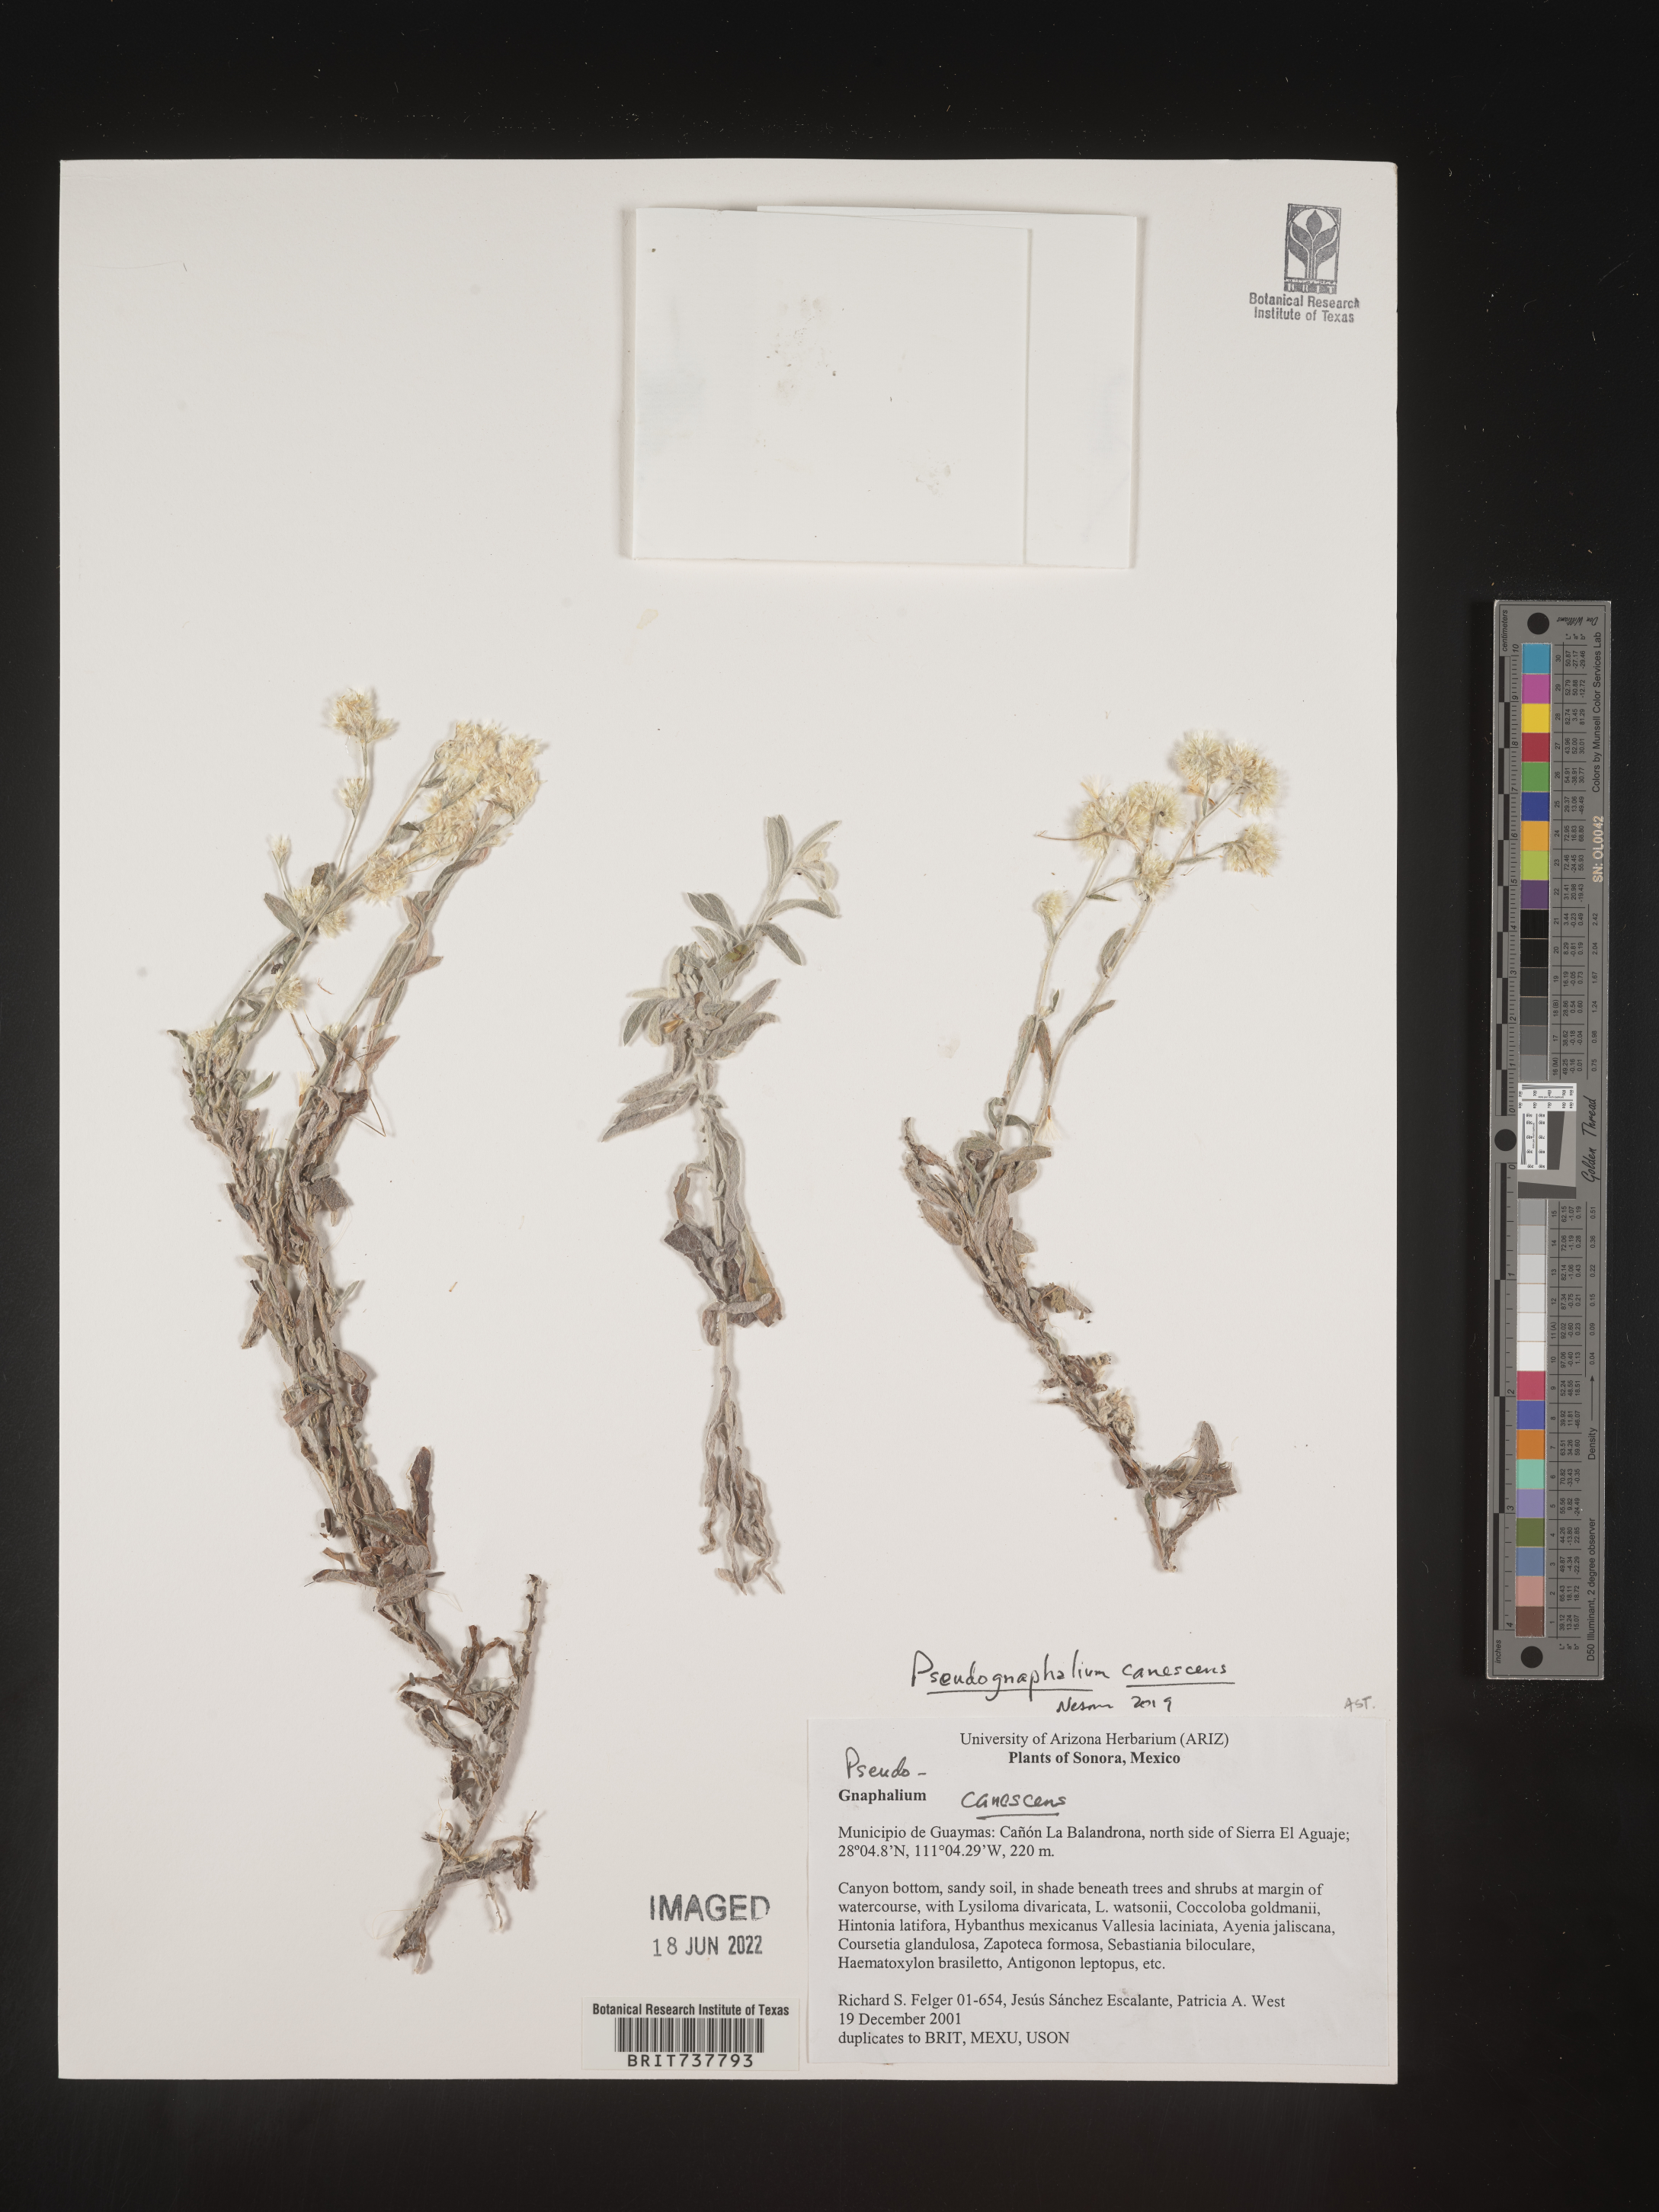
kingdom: Plantae
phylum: Tracheophyta
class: Magnoliopsida
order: Asterales
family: Asteraceae
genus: Pseudognaphalium
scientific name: Pseudognaphalium canescens
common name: Wright's rabbit-tobacco
